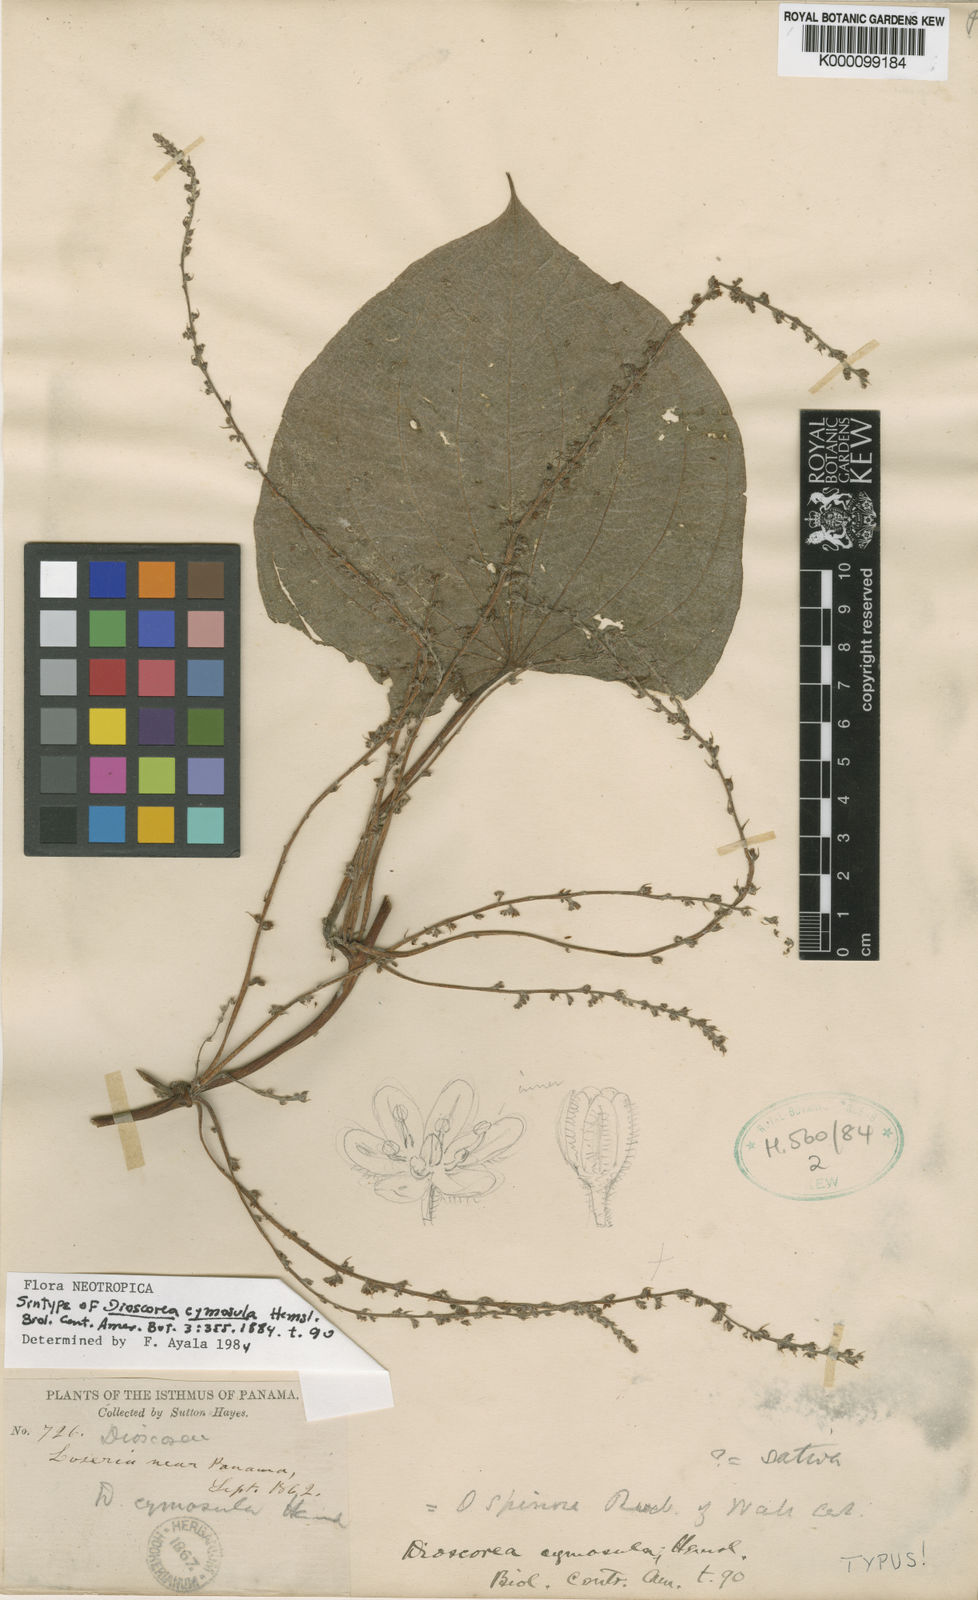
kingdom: Plantae
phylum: Tracheophyta
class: Liliopsida
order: Dioscoreales
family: Dioscoreaceae
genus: Dioscorea
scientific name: Dioscorea stegelmanniana
